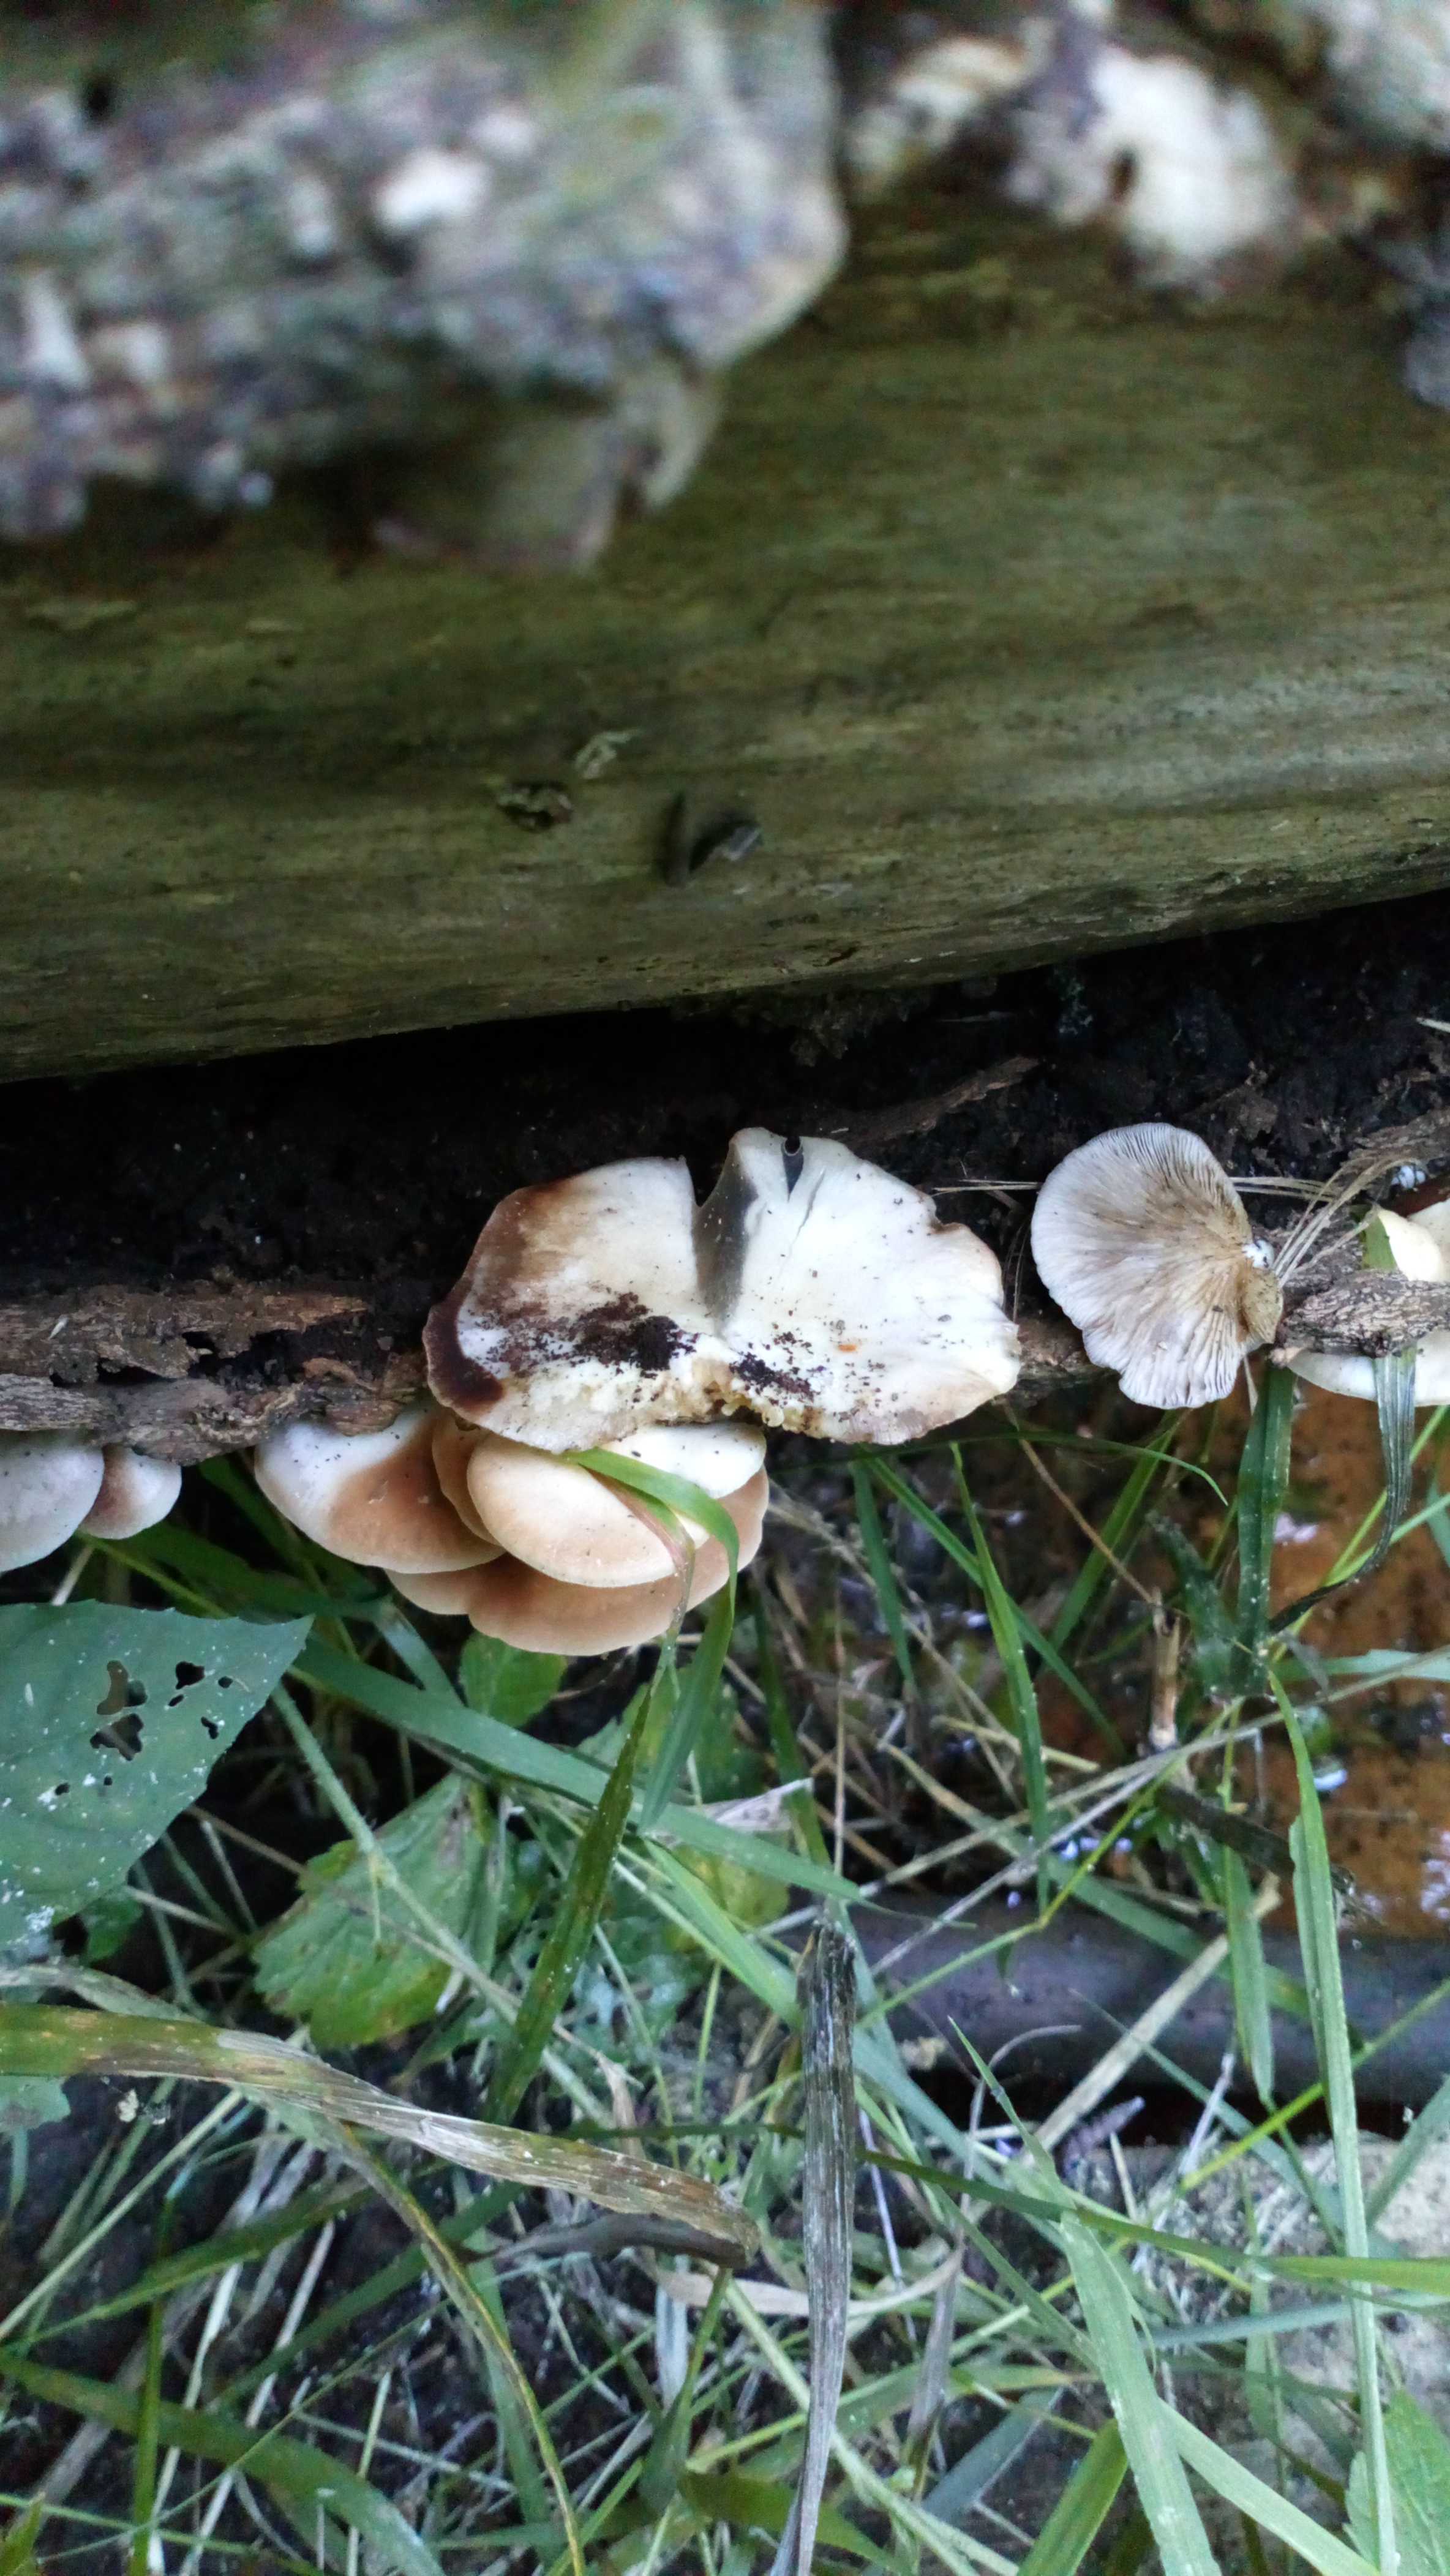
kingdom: Fungi
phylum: Basidiomycota
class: Agaricomycetes
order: Agaricales
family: Crepidotaceae
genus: Crepidotus
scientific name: Crepidotus mollis
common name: blød muslingesvamp
